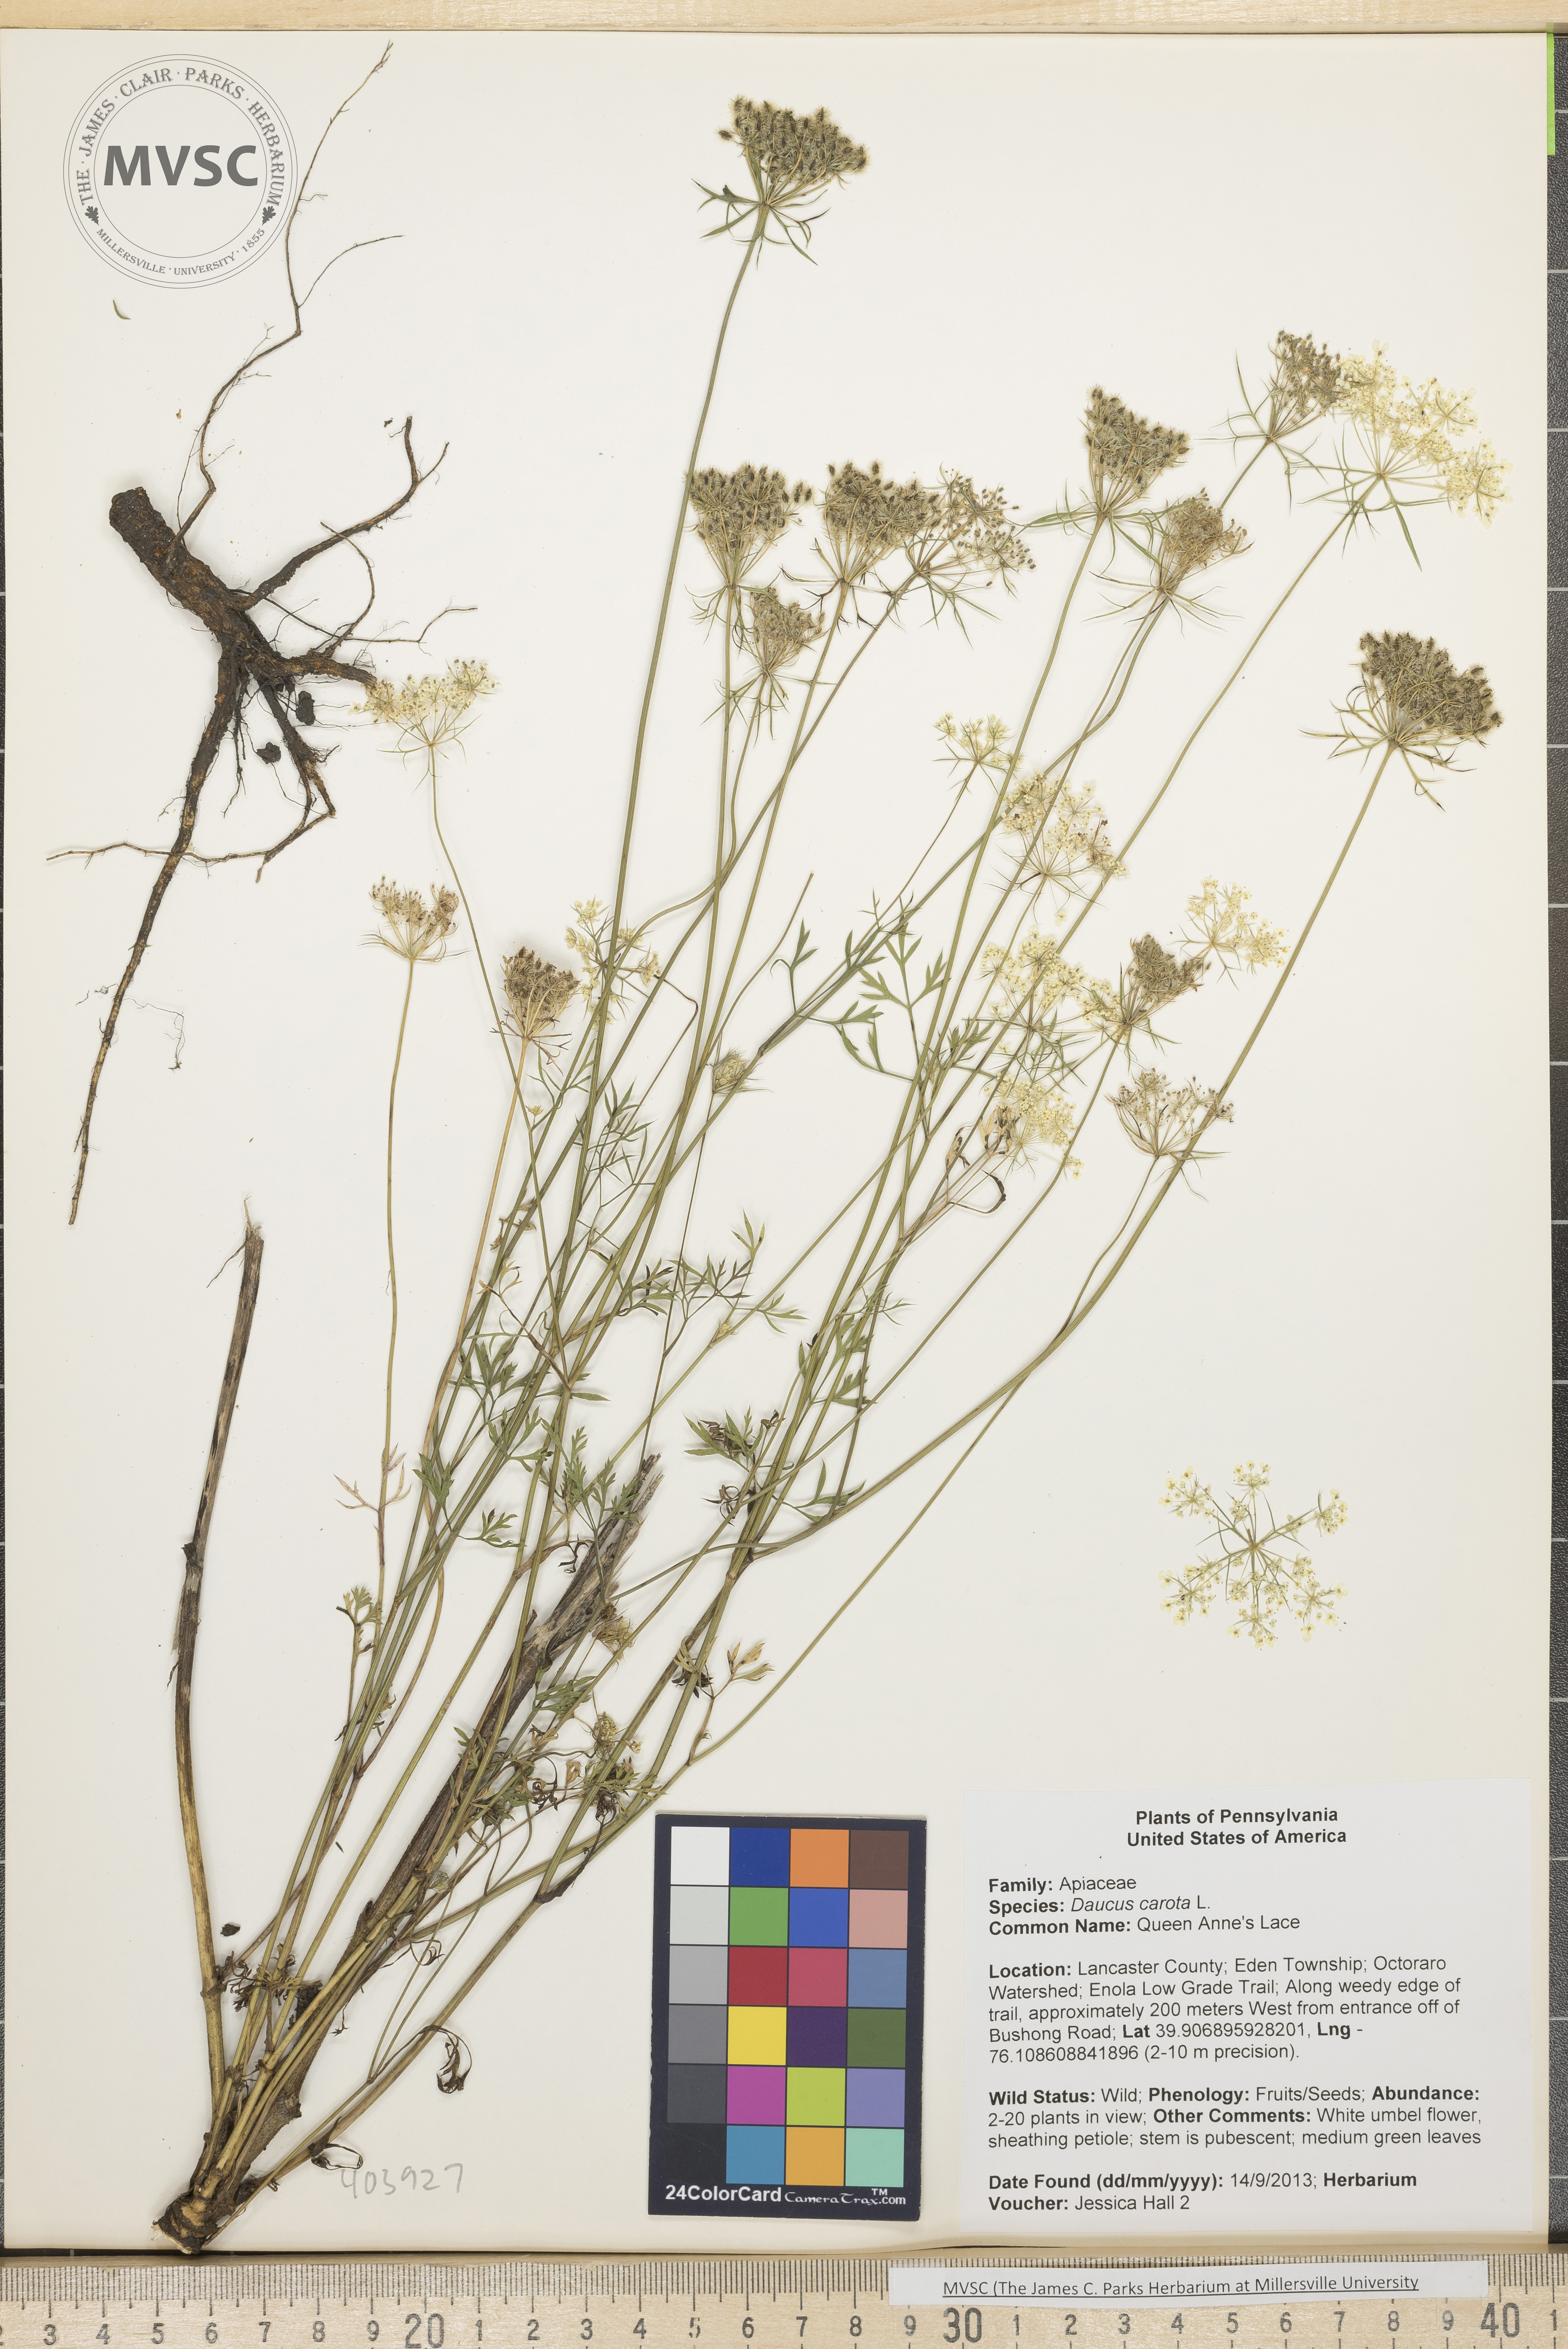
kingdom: Plantae
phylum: Tracheophyta
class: Magnoliopsida
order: Apiales
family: Apiaceae
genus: Daucus
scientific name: Daucus carota
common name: Queen Anne's Lace
